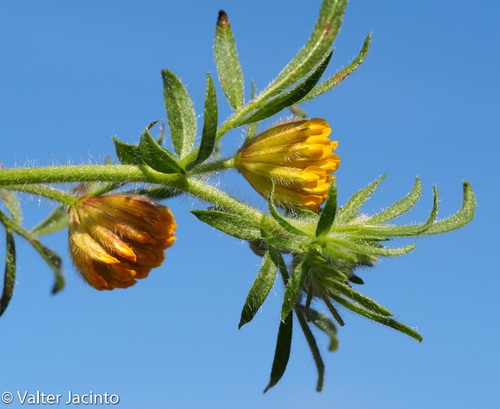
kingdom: Plantae
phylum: Tracheophyta
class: Magnoliopsida
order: Fabales
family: Fabaceae
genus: Anthyllis
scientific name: Anthyllis lotoides
